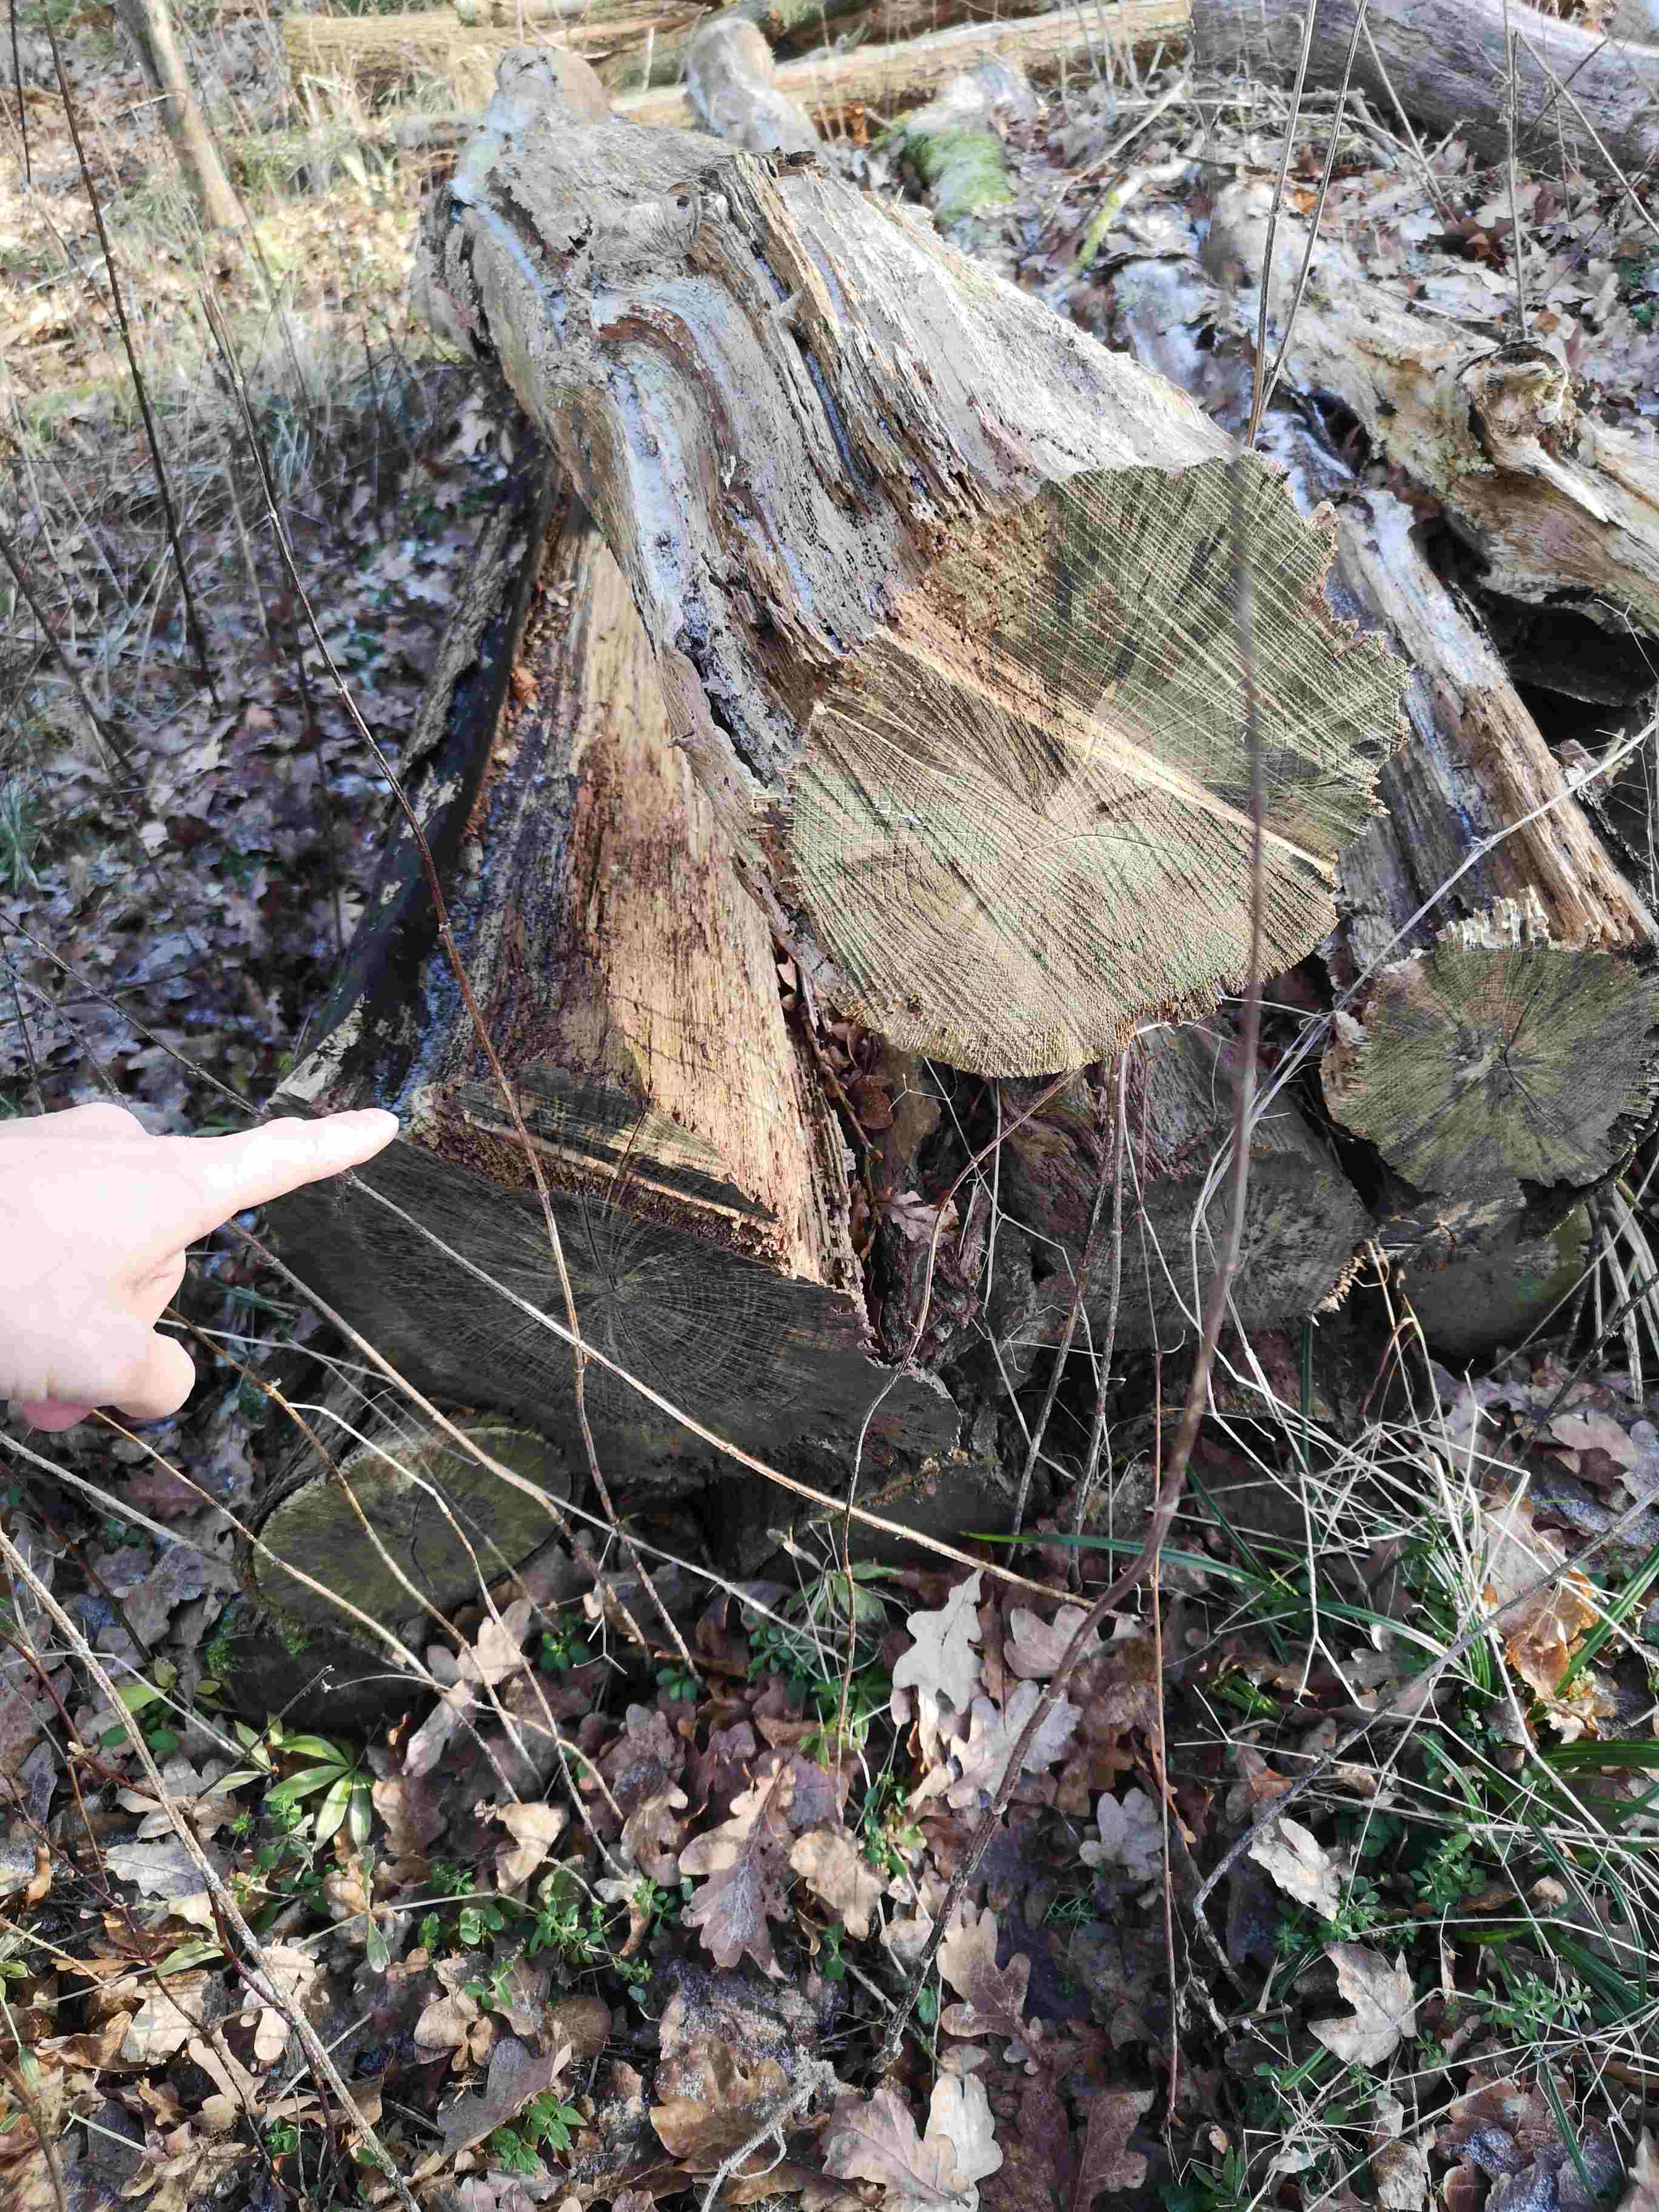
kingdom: Fungi
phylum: Ascomycota
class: Leotiomycetes
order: Helotiales
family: Mollisiaceae
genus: Mollisia
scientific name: Mollisia ligni
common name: ved-gråskive
